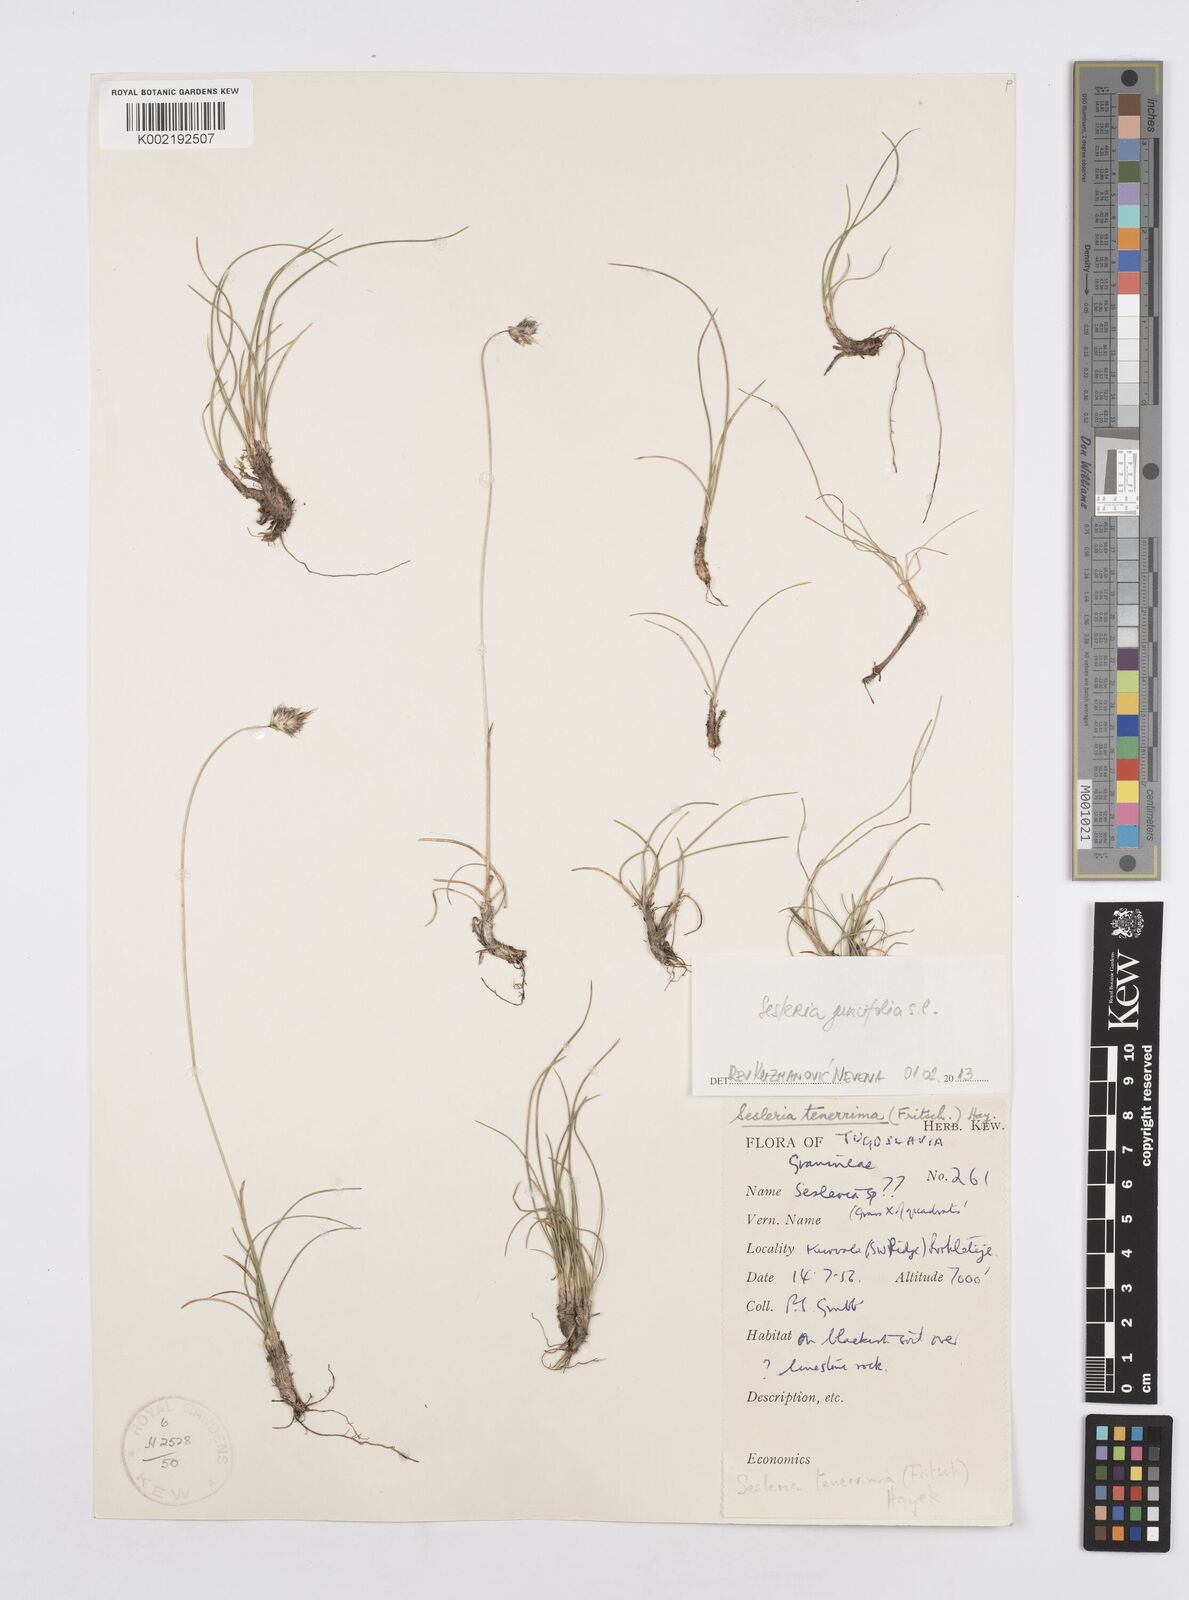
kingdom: Plantae
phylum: Tracheophyta
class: Liliopsida
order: Poales
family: Poaceae
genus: Sesleria
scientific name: Sesleria juncifolia
